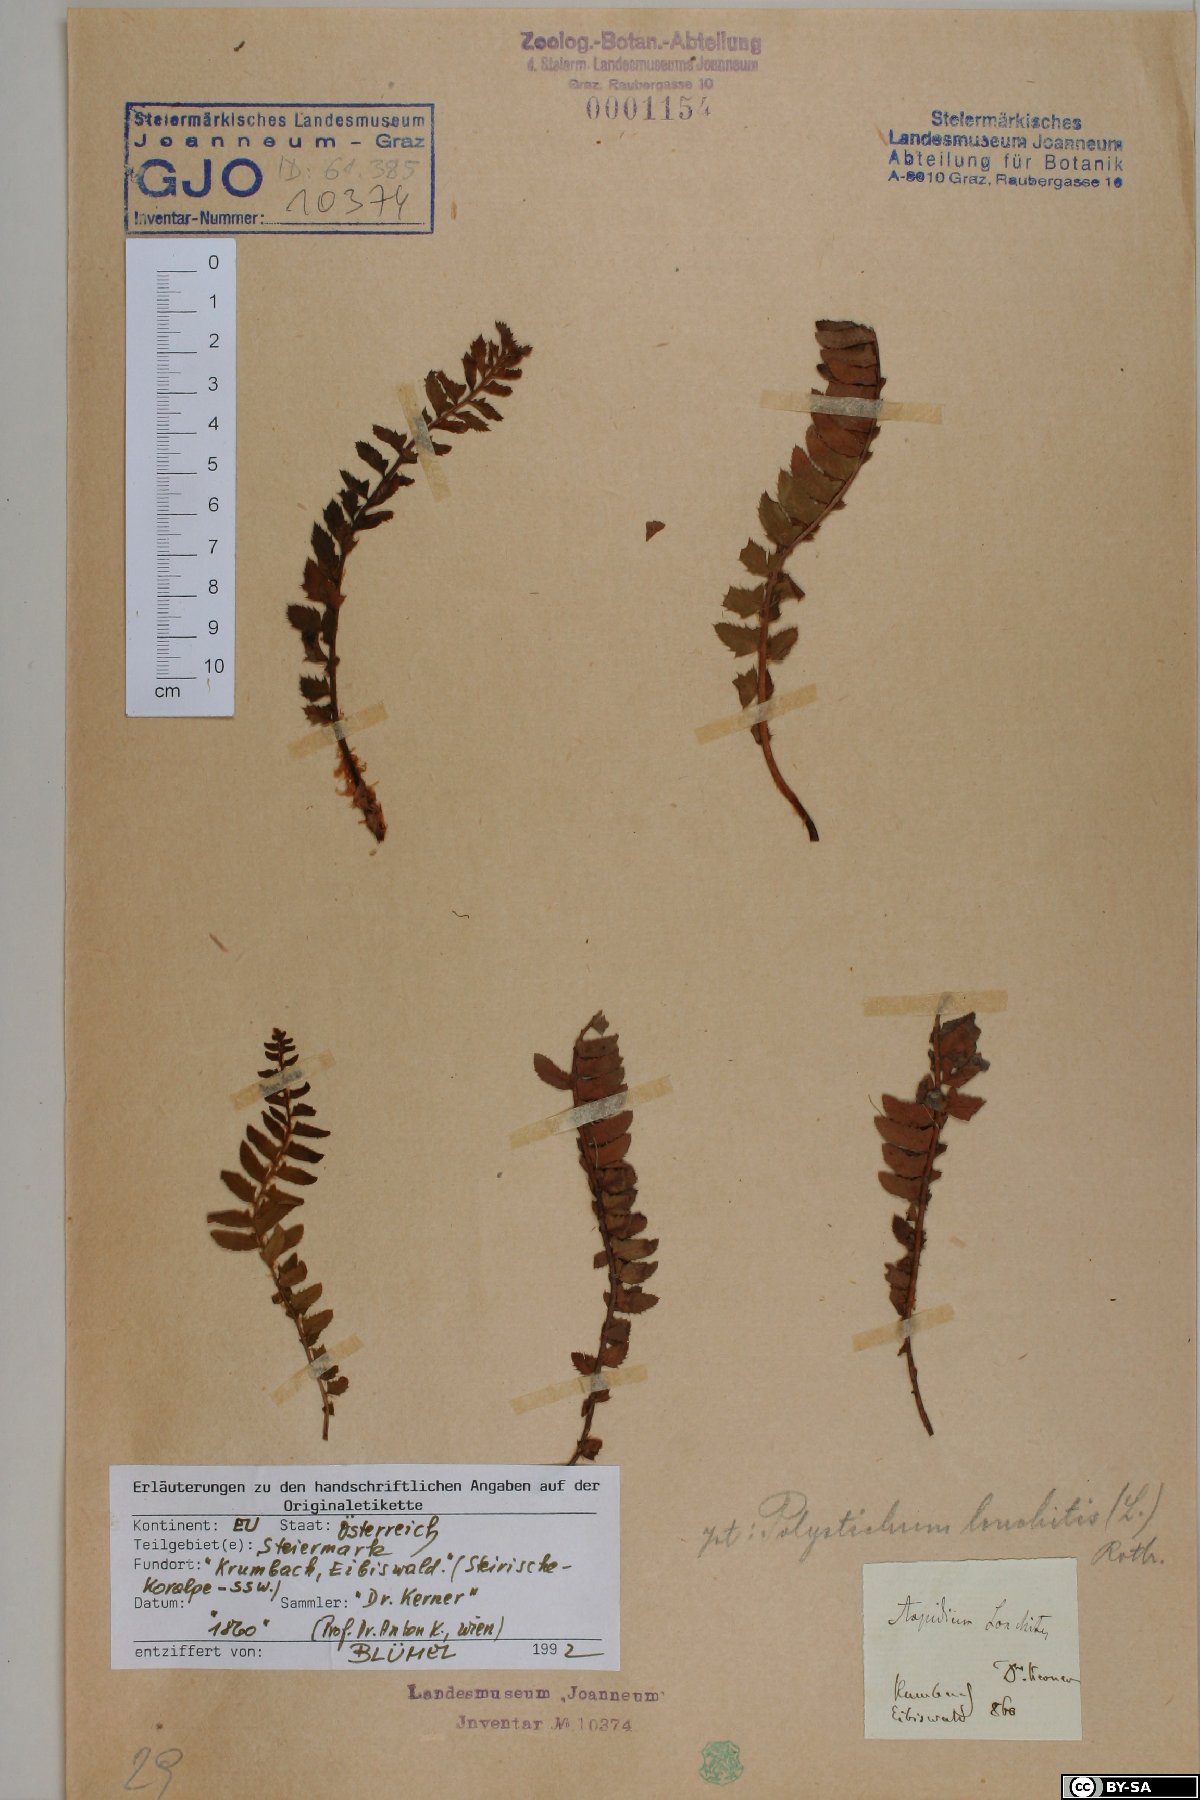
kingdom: Plantae
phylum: Tracheophyta
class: Polypodiopsida
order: Polypodiales
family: Dryopteridaceae
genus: Polystichum
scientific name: Polystichum lonchitis
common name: Holly fern
